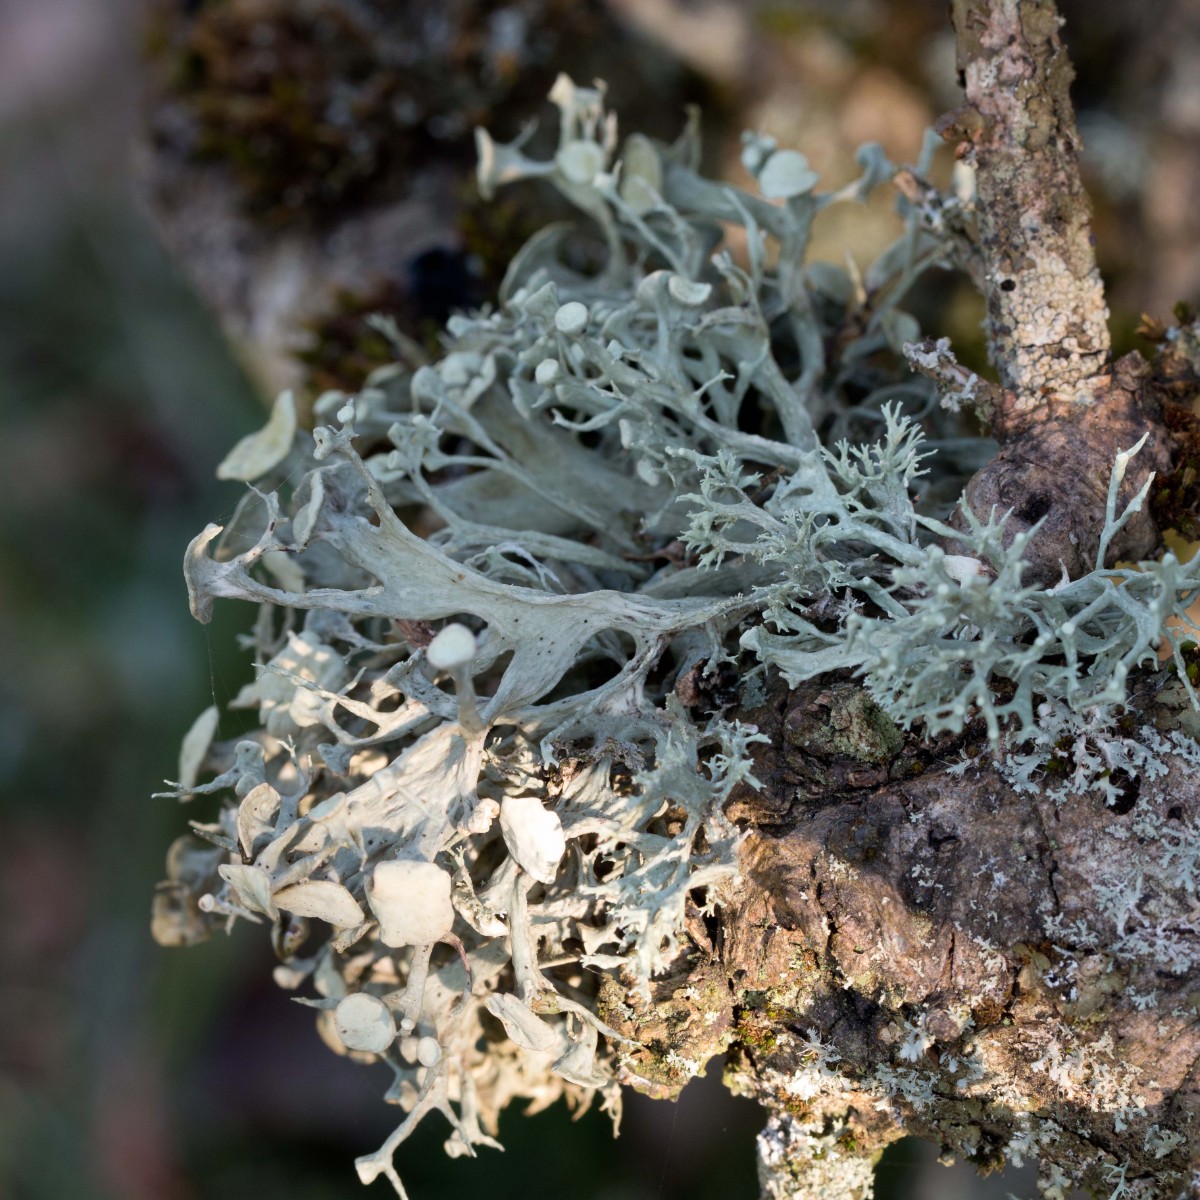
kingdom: Fungi
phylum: Ascomycota
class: Lecanoromycetes
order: Lecanorales
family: Ramalinaceae
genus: Ramalina
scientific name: Ramalina fastigiata
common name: tue-grenlav
